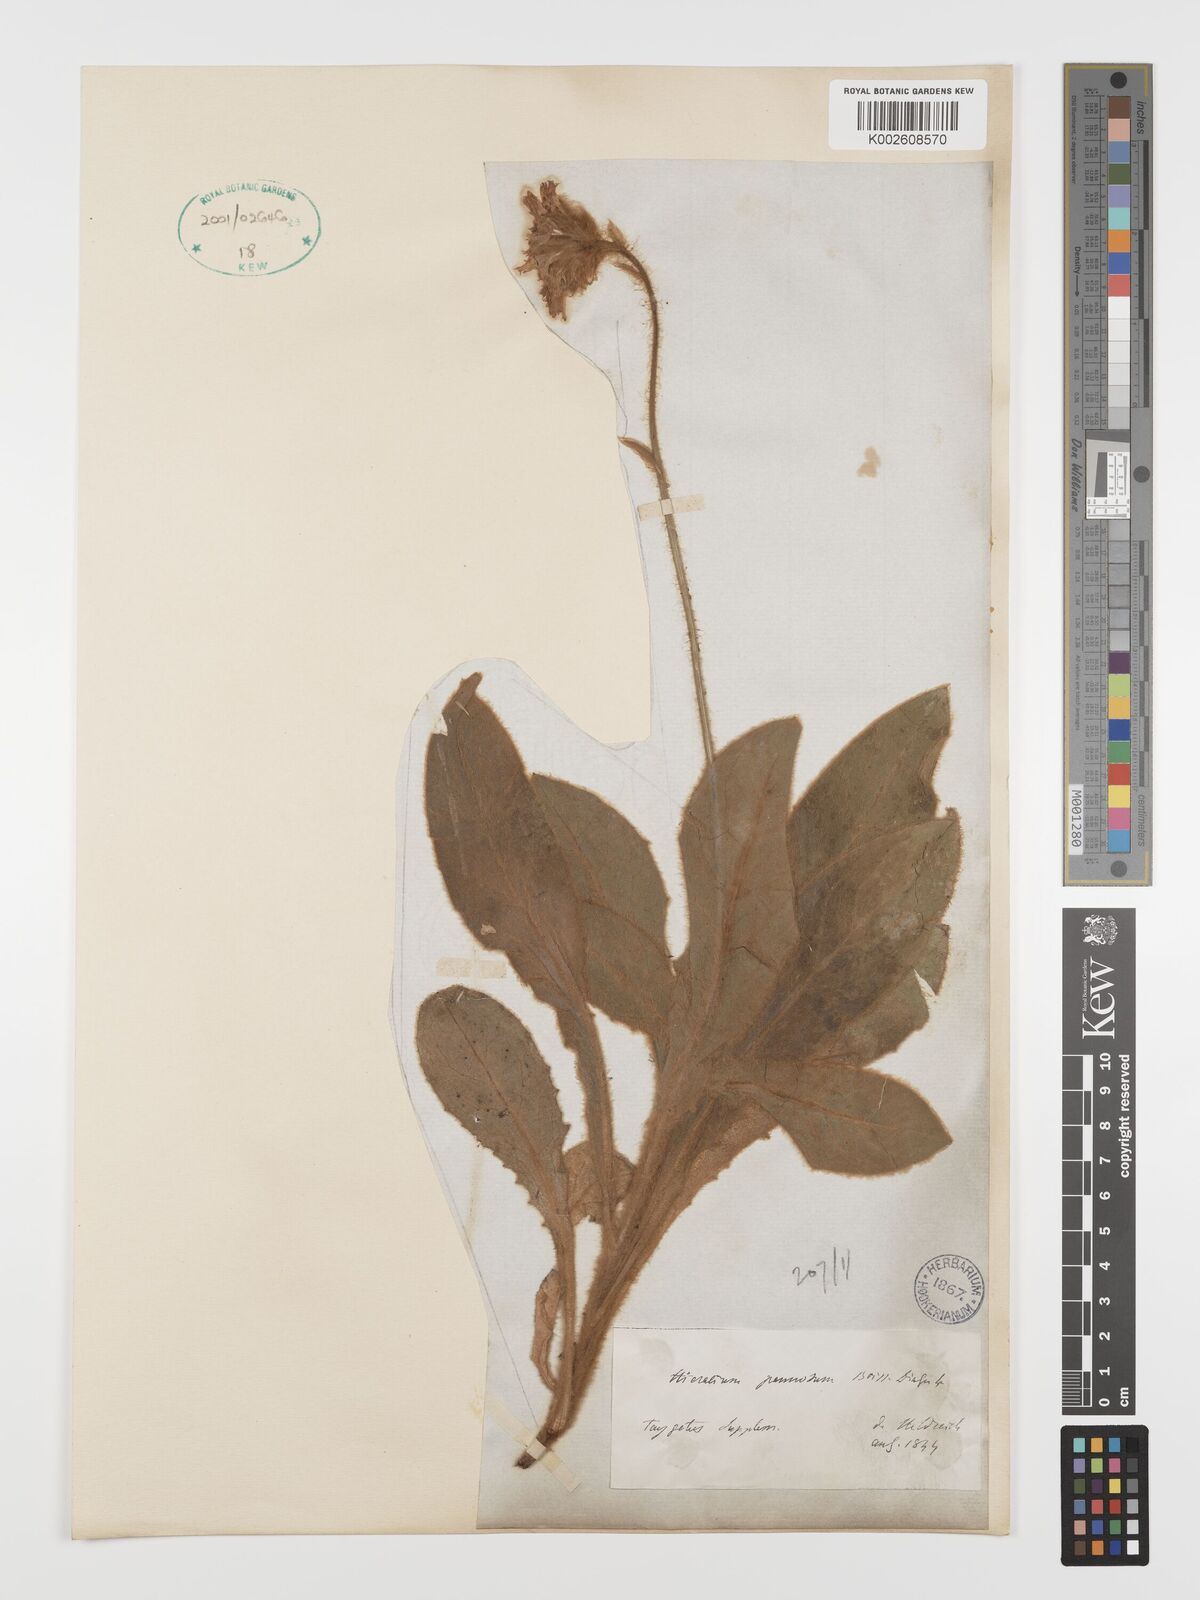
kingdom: Plantae
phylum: Tracheophyta
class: Magnoliopsida
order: Asterales
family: Asteraceae
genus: Hieracium
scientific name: Hieracium pannosum
